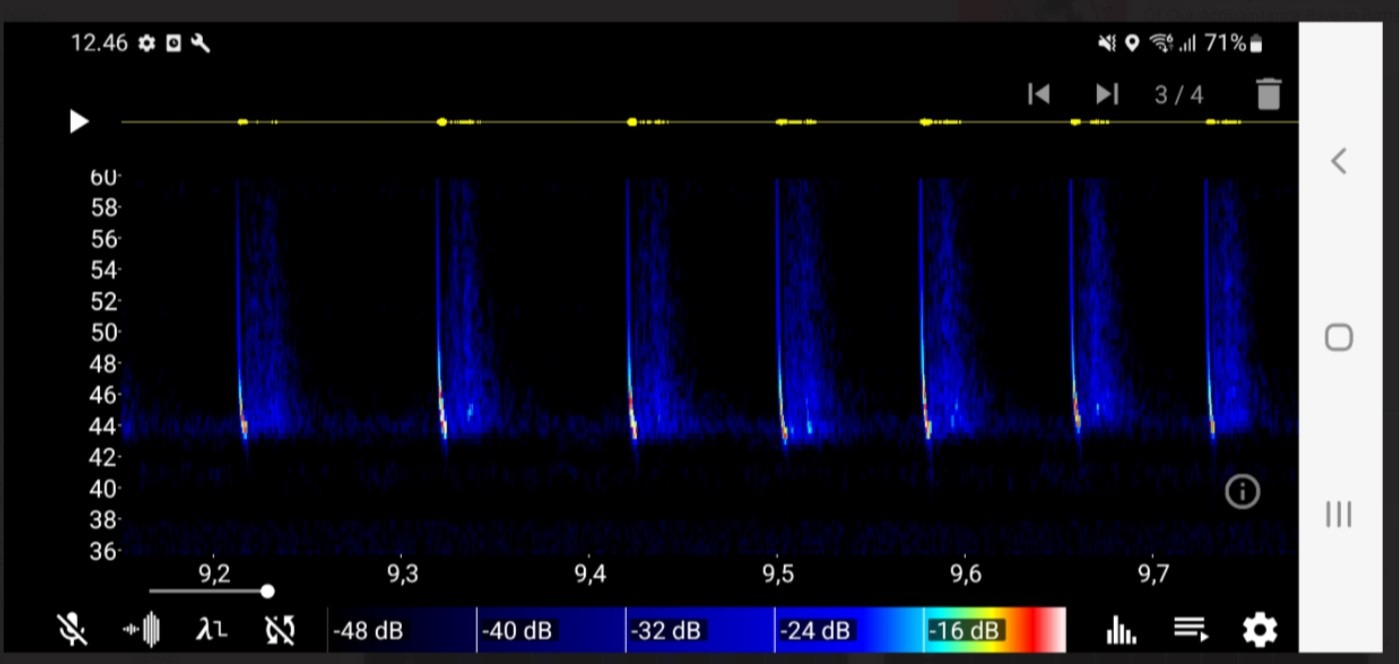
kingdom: Animalia
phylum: Chordata
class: Mammalia
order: Chiroptera
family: Vespertilionidae
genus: Pipistrellus
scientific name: Pipistrellus pipistrellus
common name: Pipistrelflagermus
